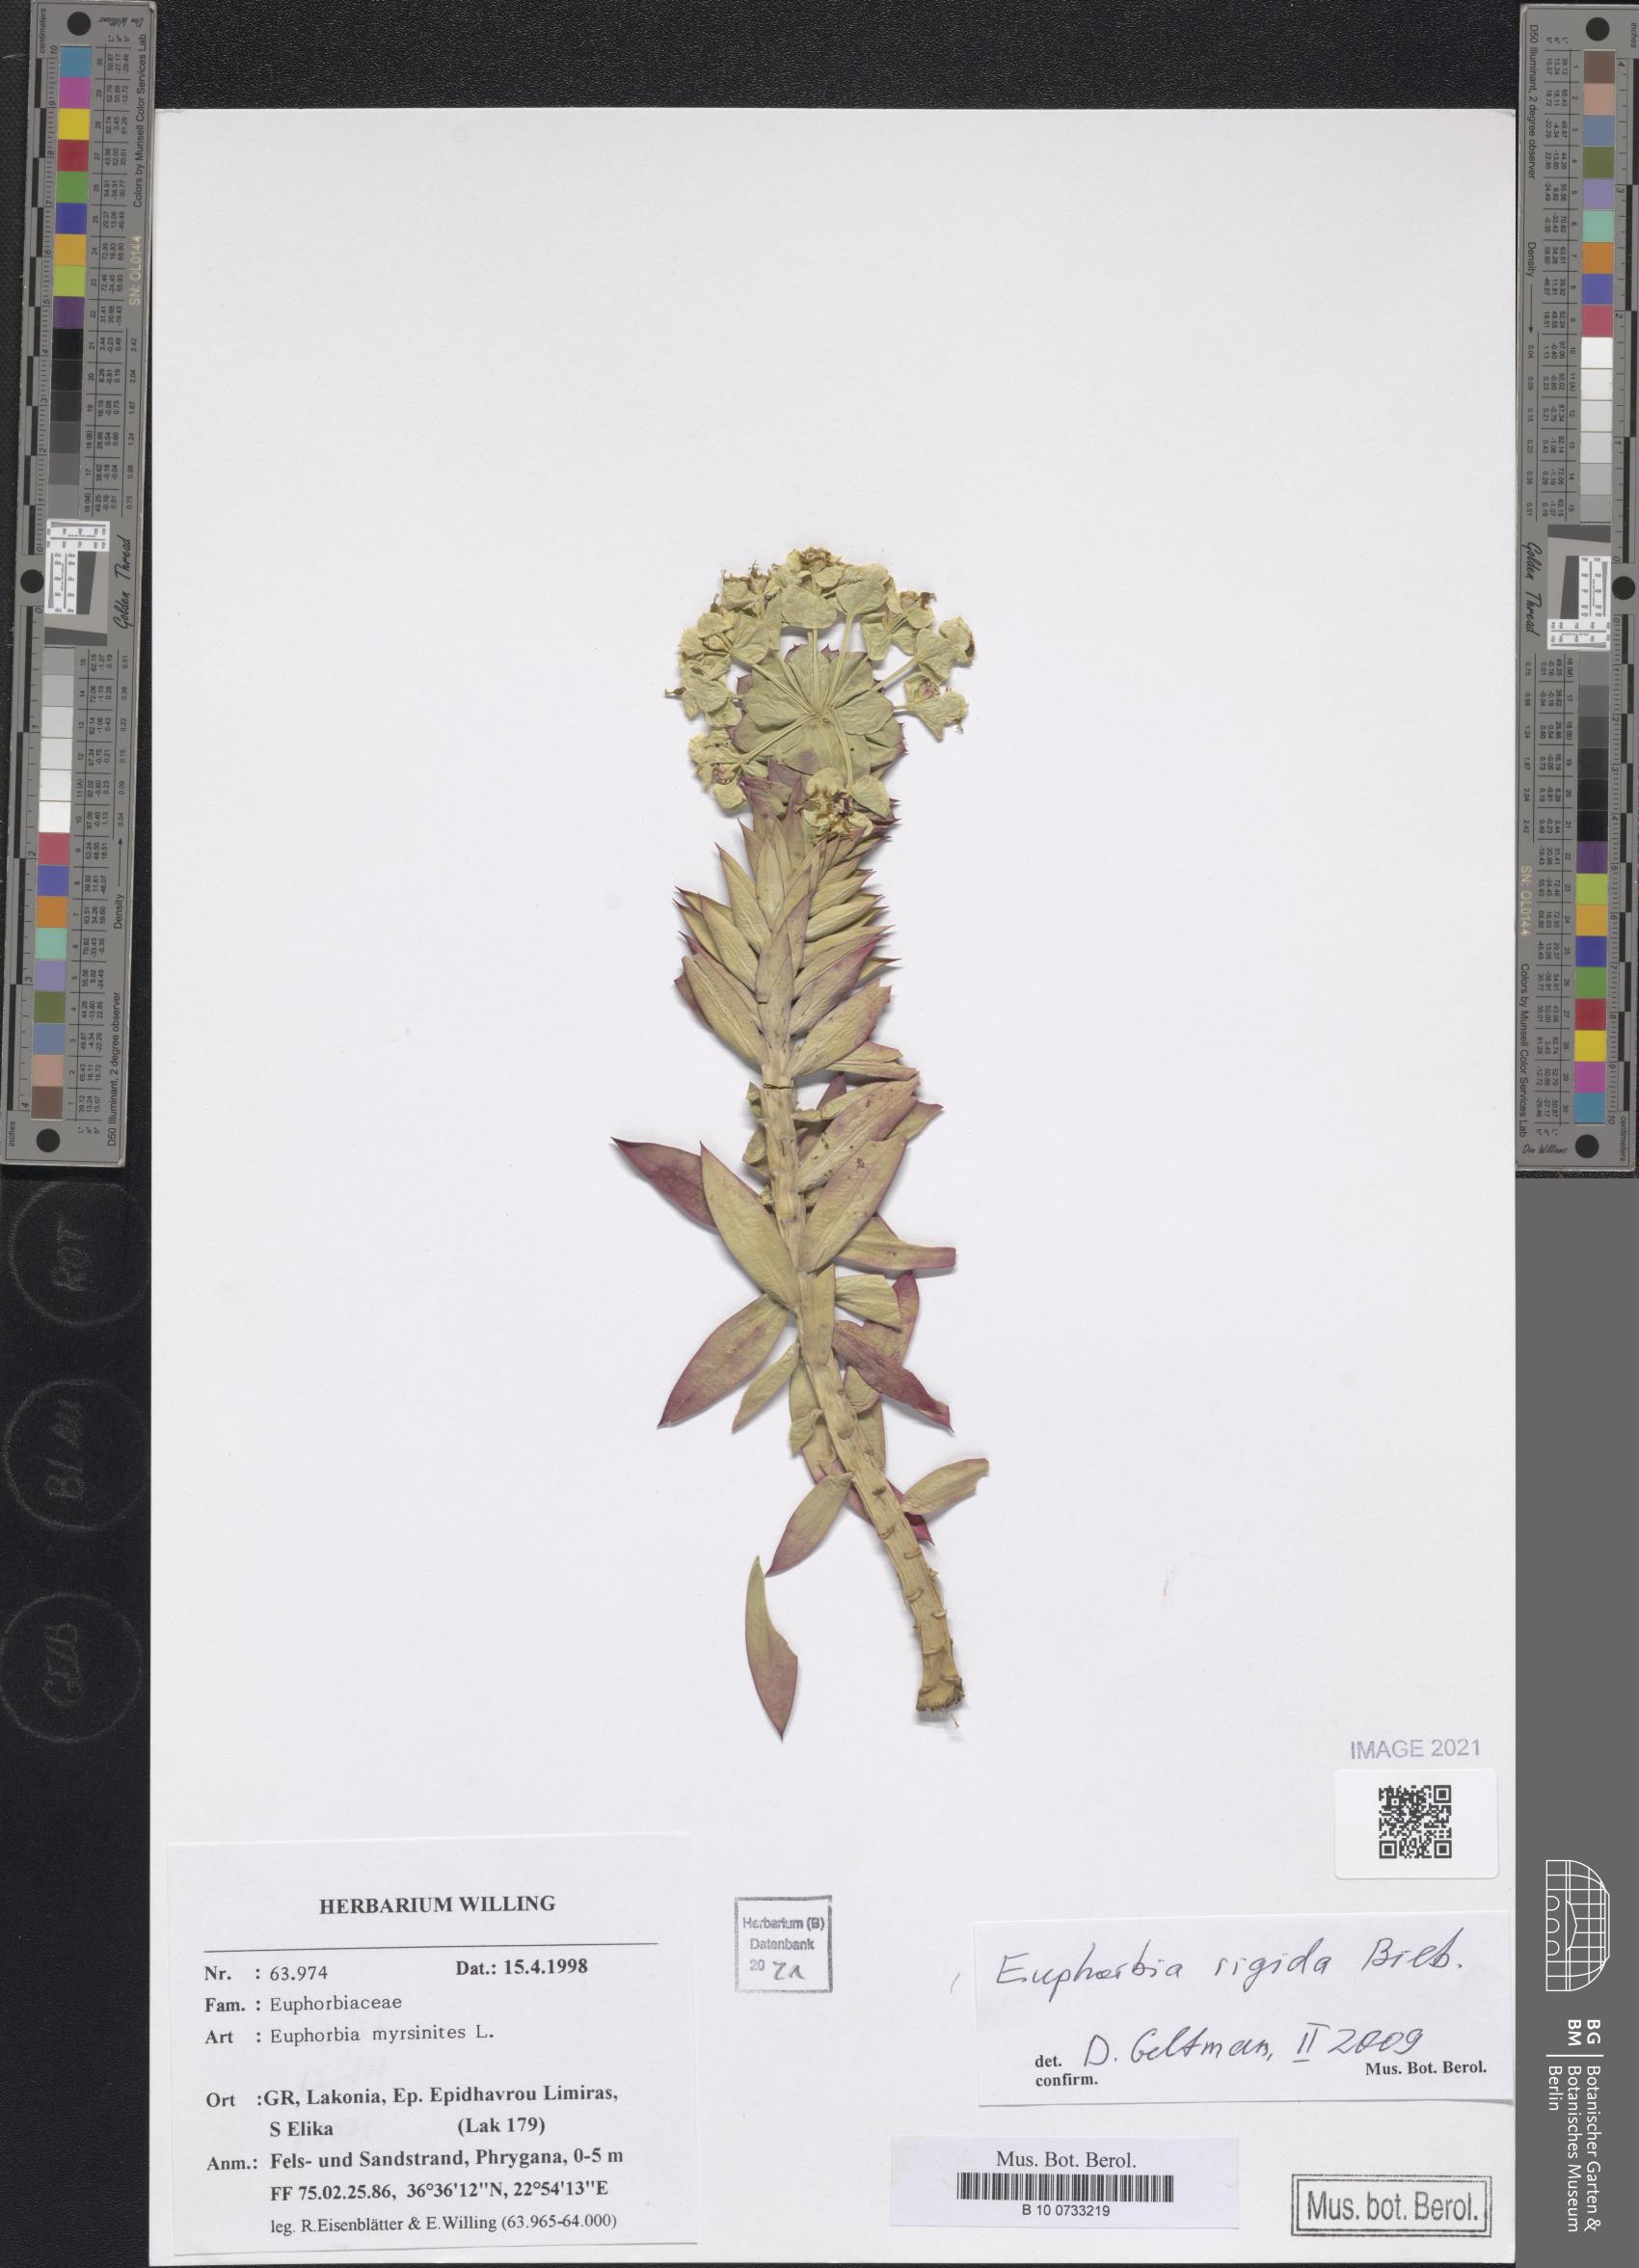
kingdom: Plantae
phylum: Tracheophyta
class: Magnoliopsida
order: Malpighiales
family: Euphorbiaceae
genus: Euphorbia
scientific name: Euphorbia rigida
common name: Upright myrtle spurge
